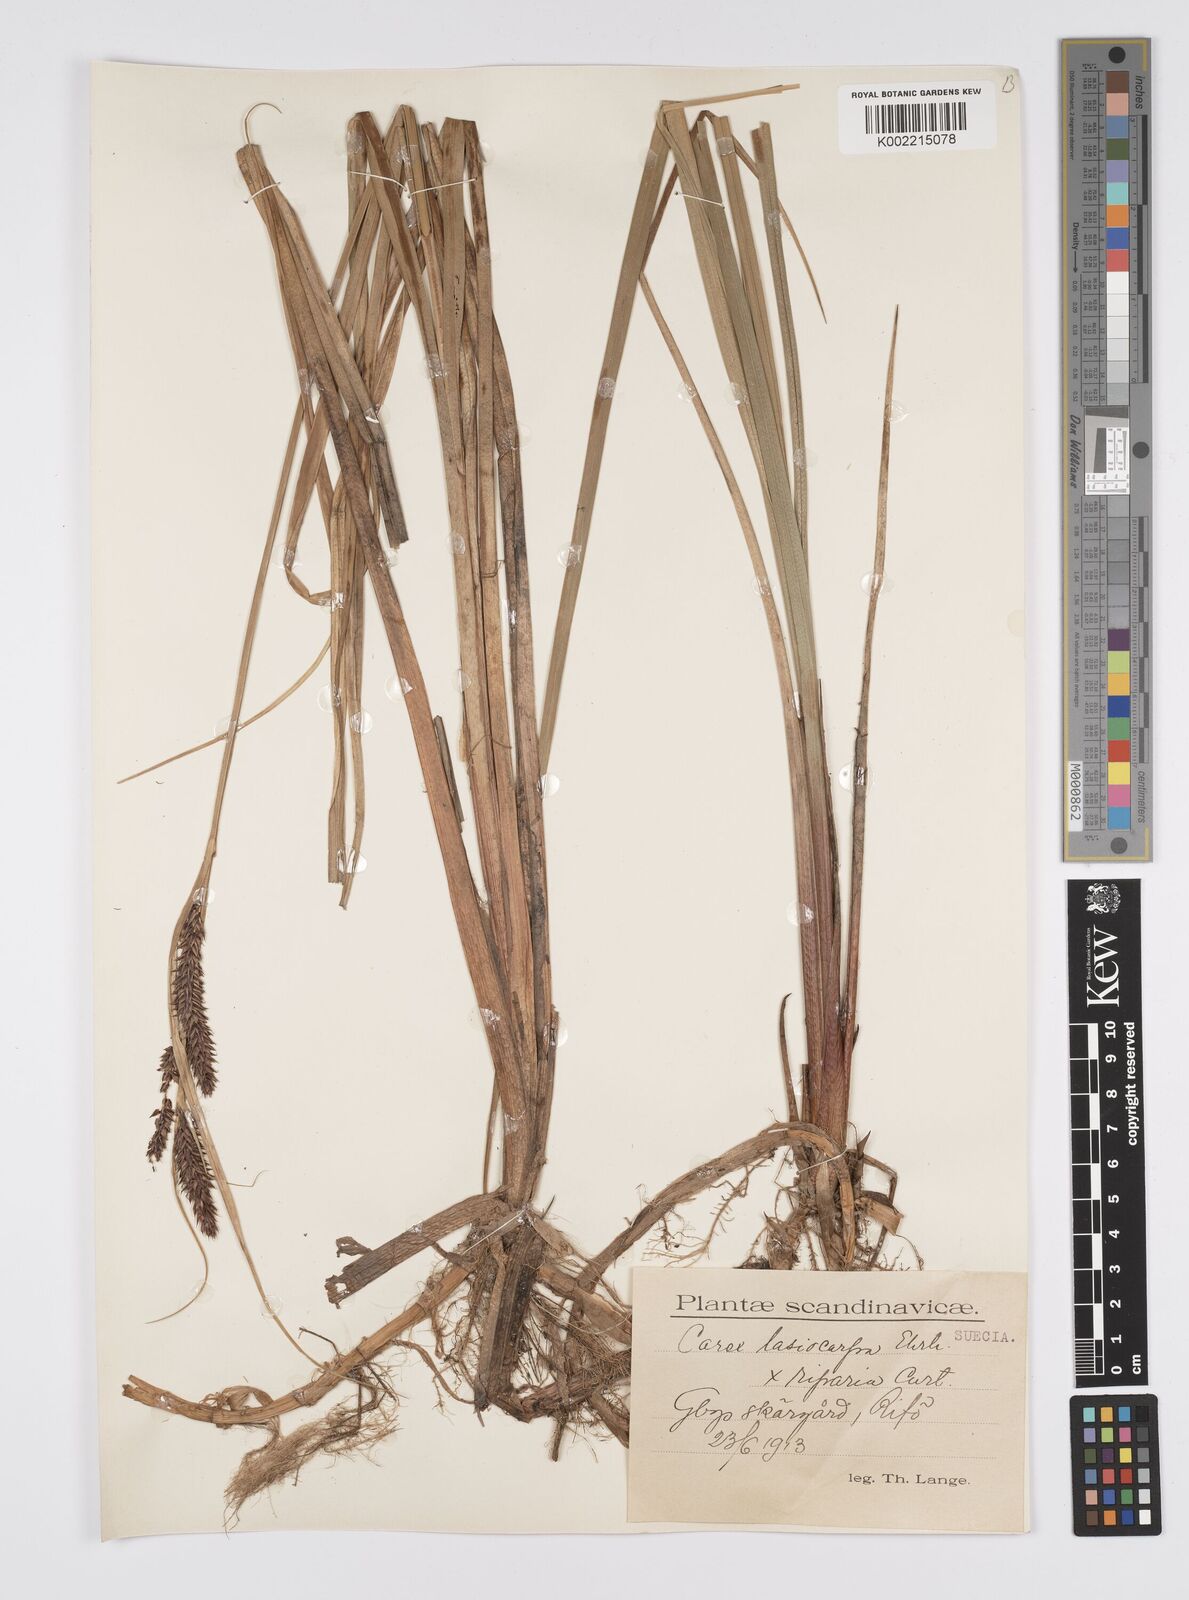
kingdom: Plantae
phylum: Tracheophyta
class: Liliopsida
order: Poales
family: Cyperaceae
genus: Carex
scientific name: Carex evoluta
